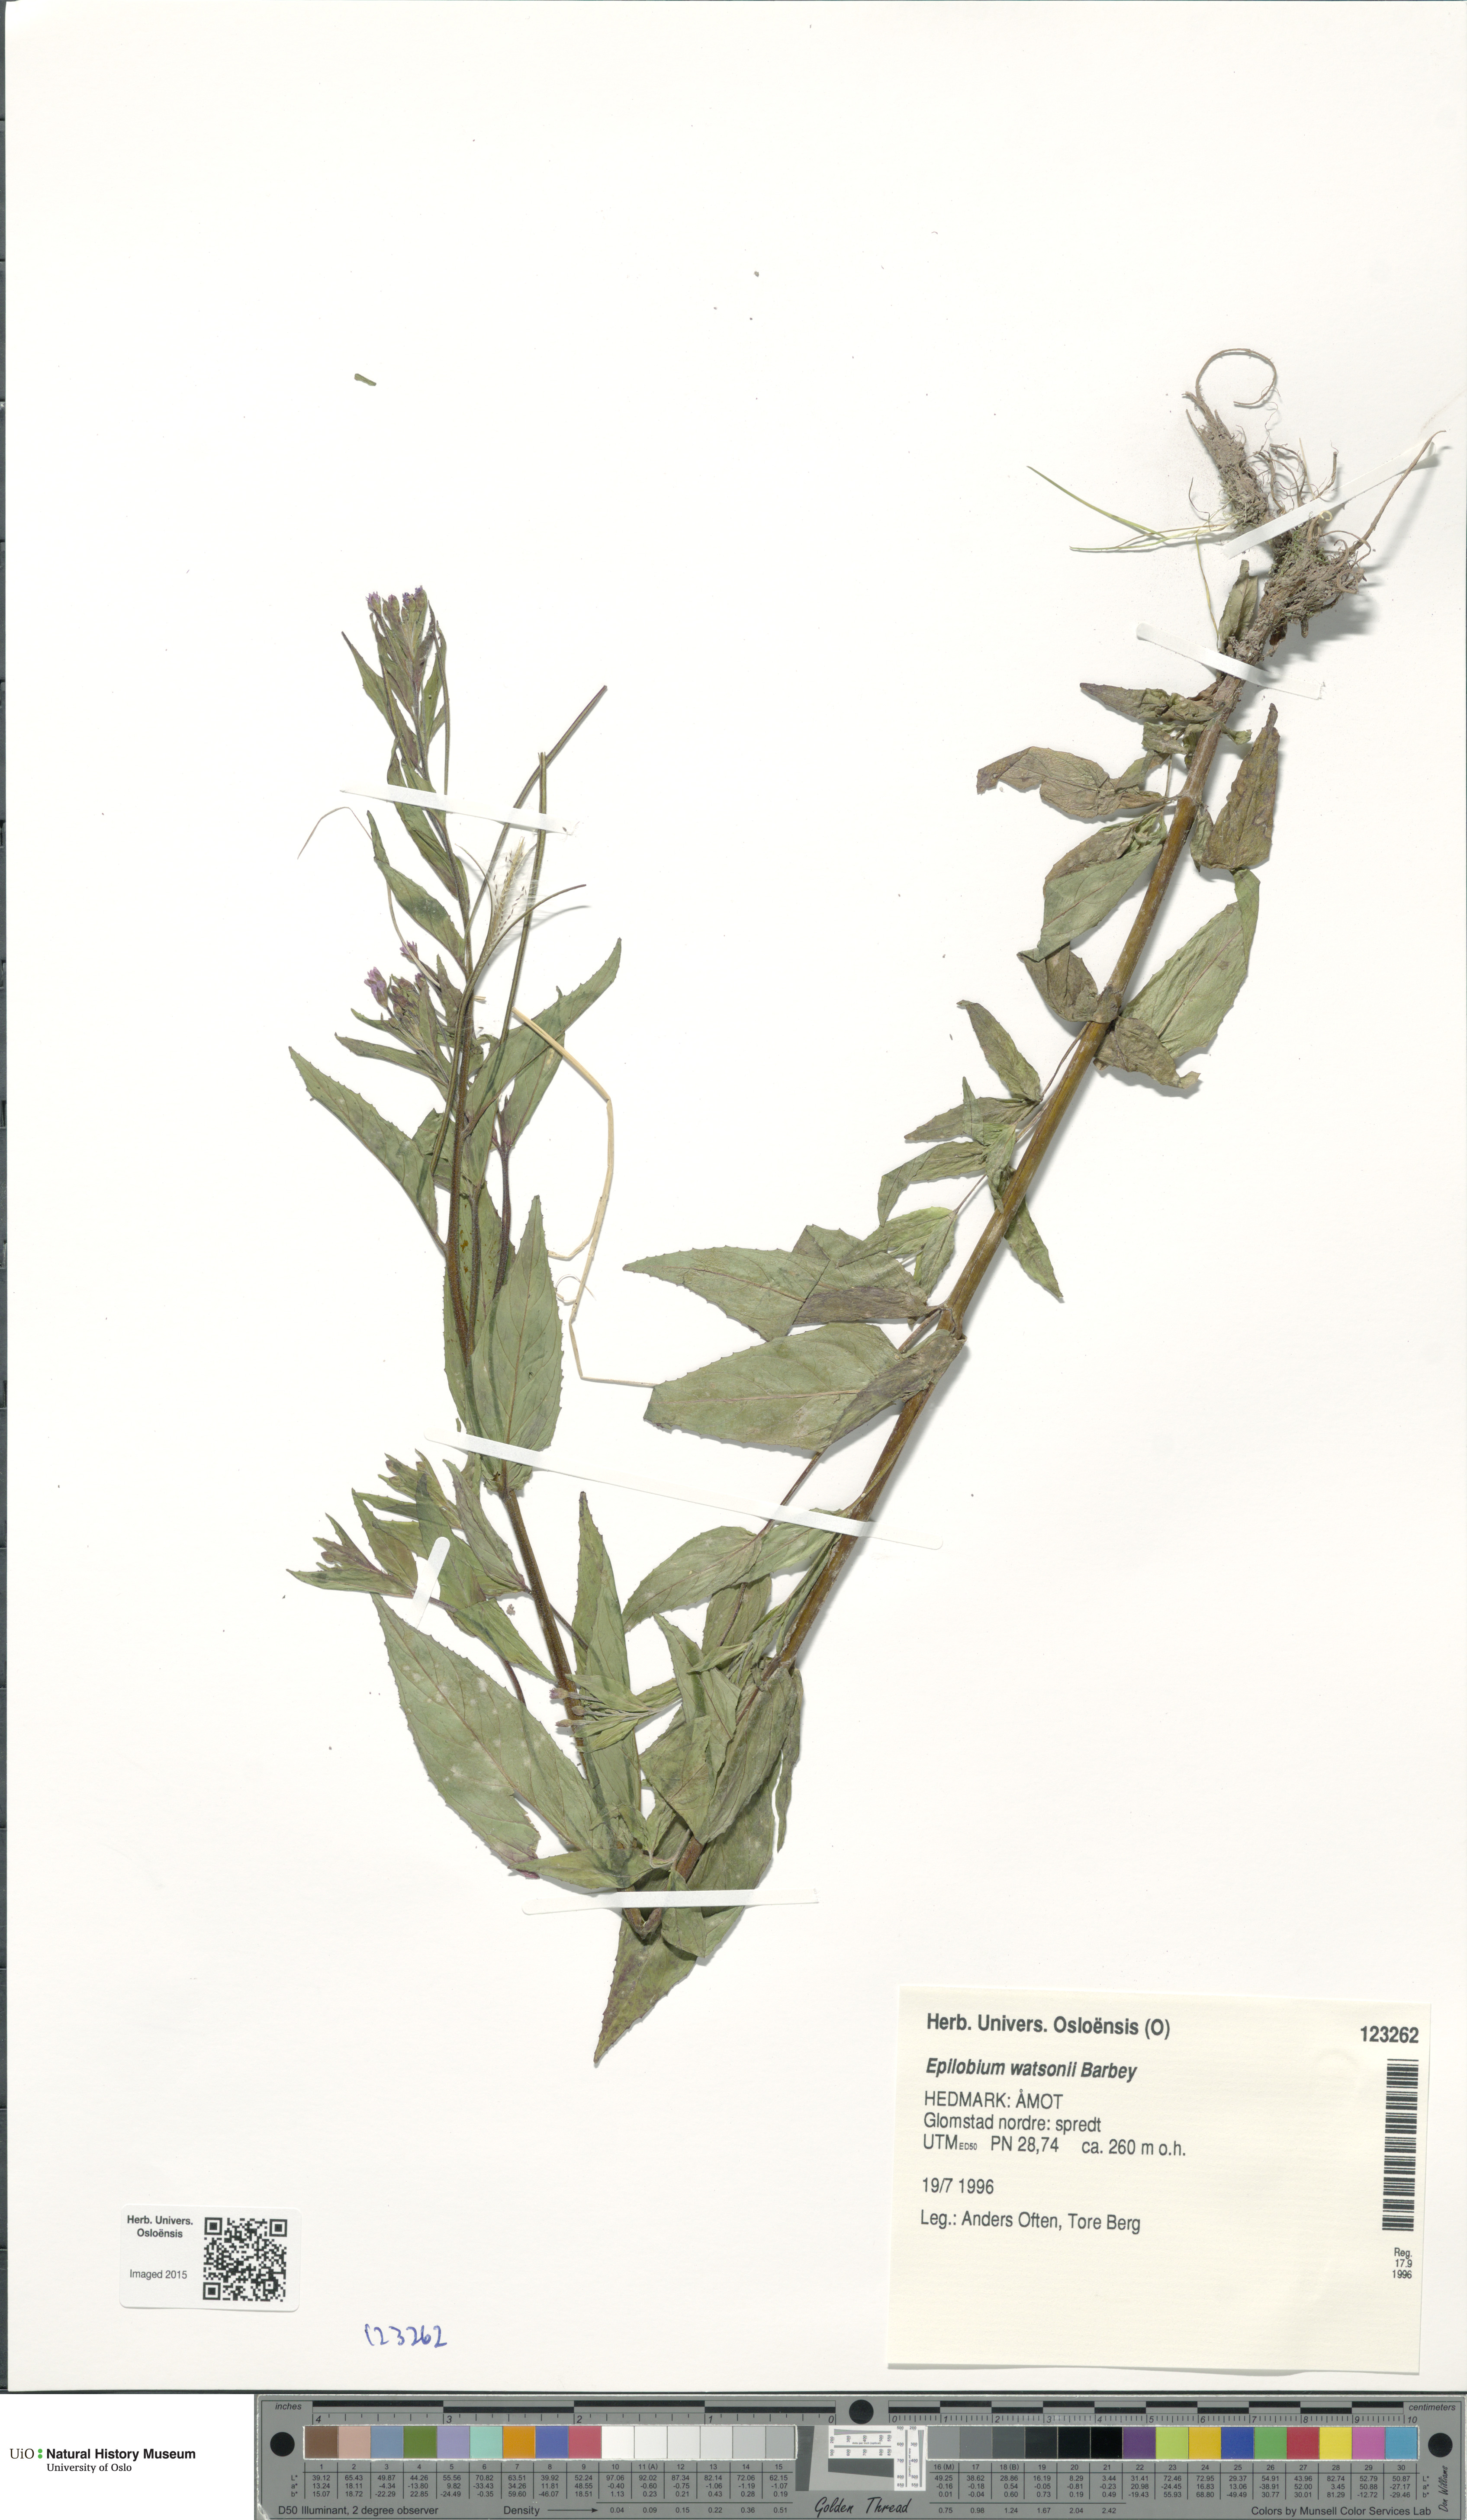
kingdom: Plantae
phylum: Tracheophyta
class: Magnoliopsida
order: Myrtales
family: Onagraceae
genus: Epilobium
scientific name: Epilobium ciliatum
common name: American willowherb
